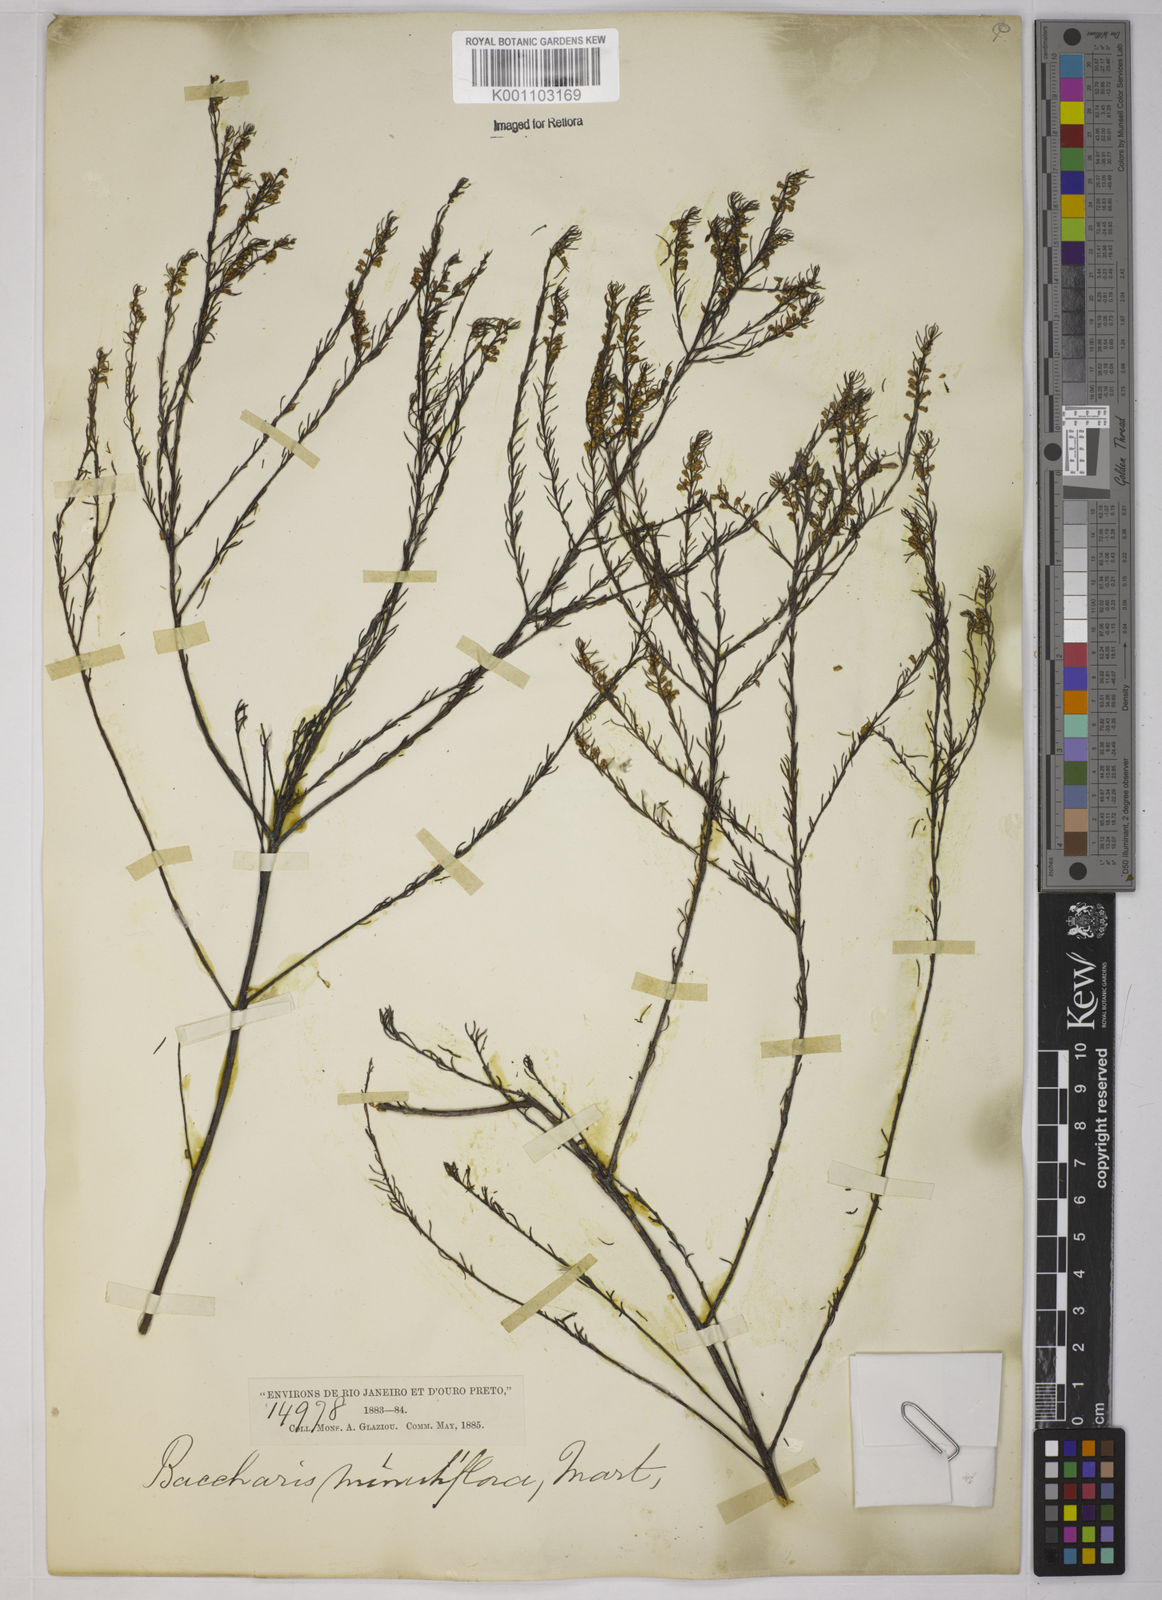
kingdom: Plantae
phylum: Tracheophyta
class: Magnoliopsida
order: Asterales
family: Asteraceae
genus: Baccharis
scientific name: Baccharis multiflora
